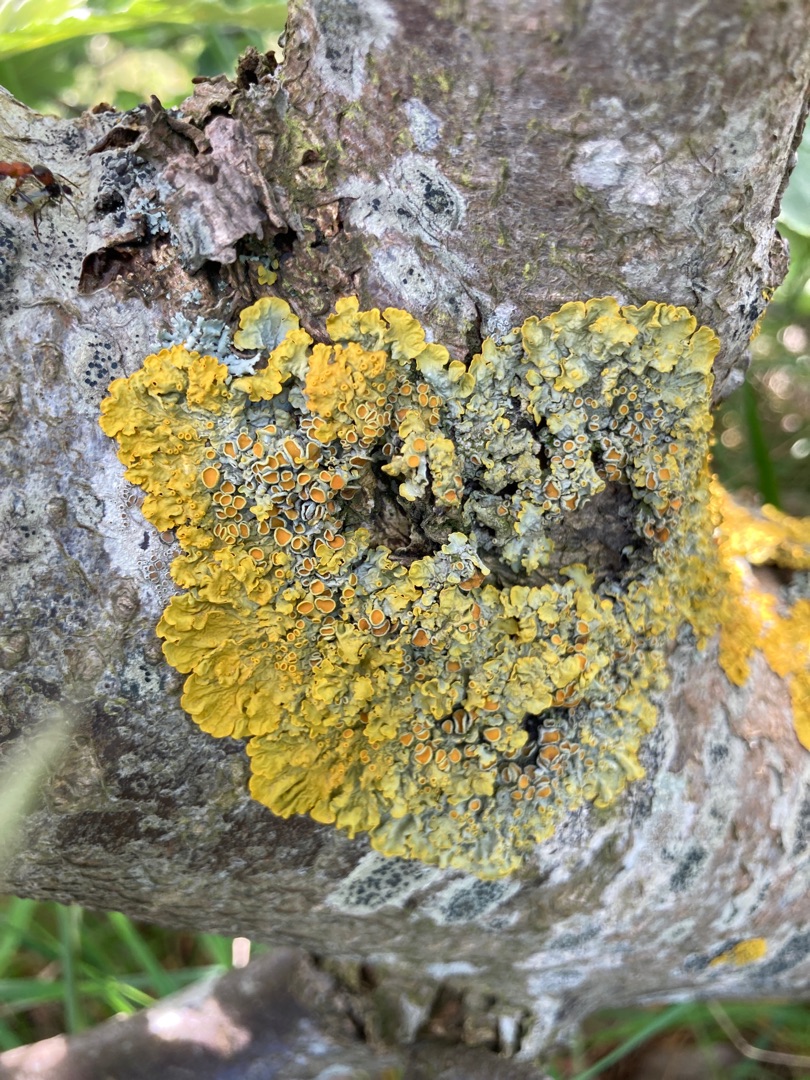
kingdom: Fungi
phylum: Ascomycota
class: Lecanoromycetes
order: Teloschistales
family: Teloschistaceae
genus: Xanthoria
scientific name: Xanthoria parietina
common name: Almindelig væggelav
